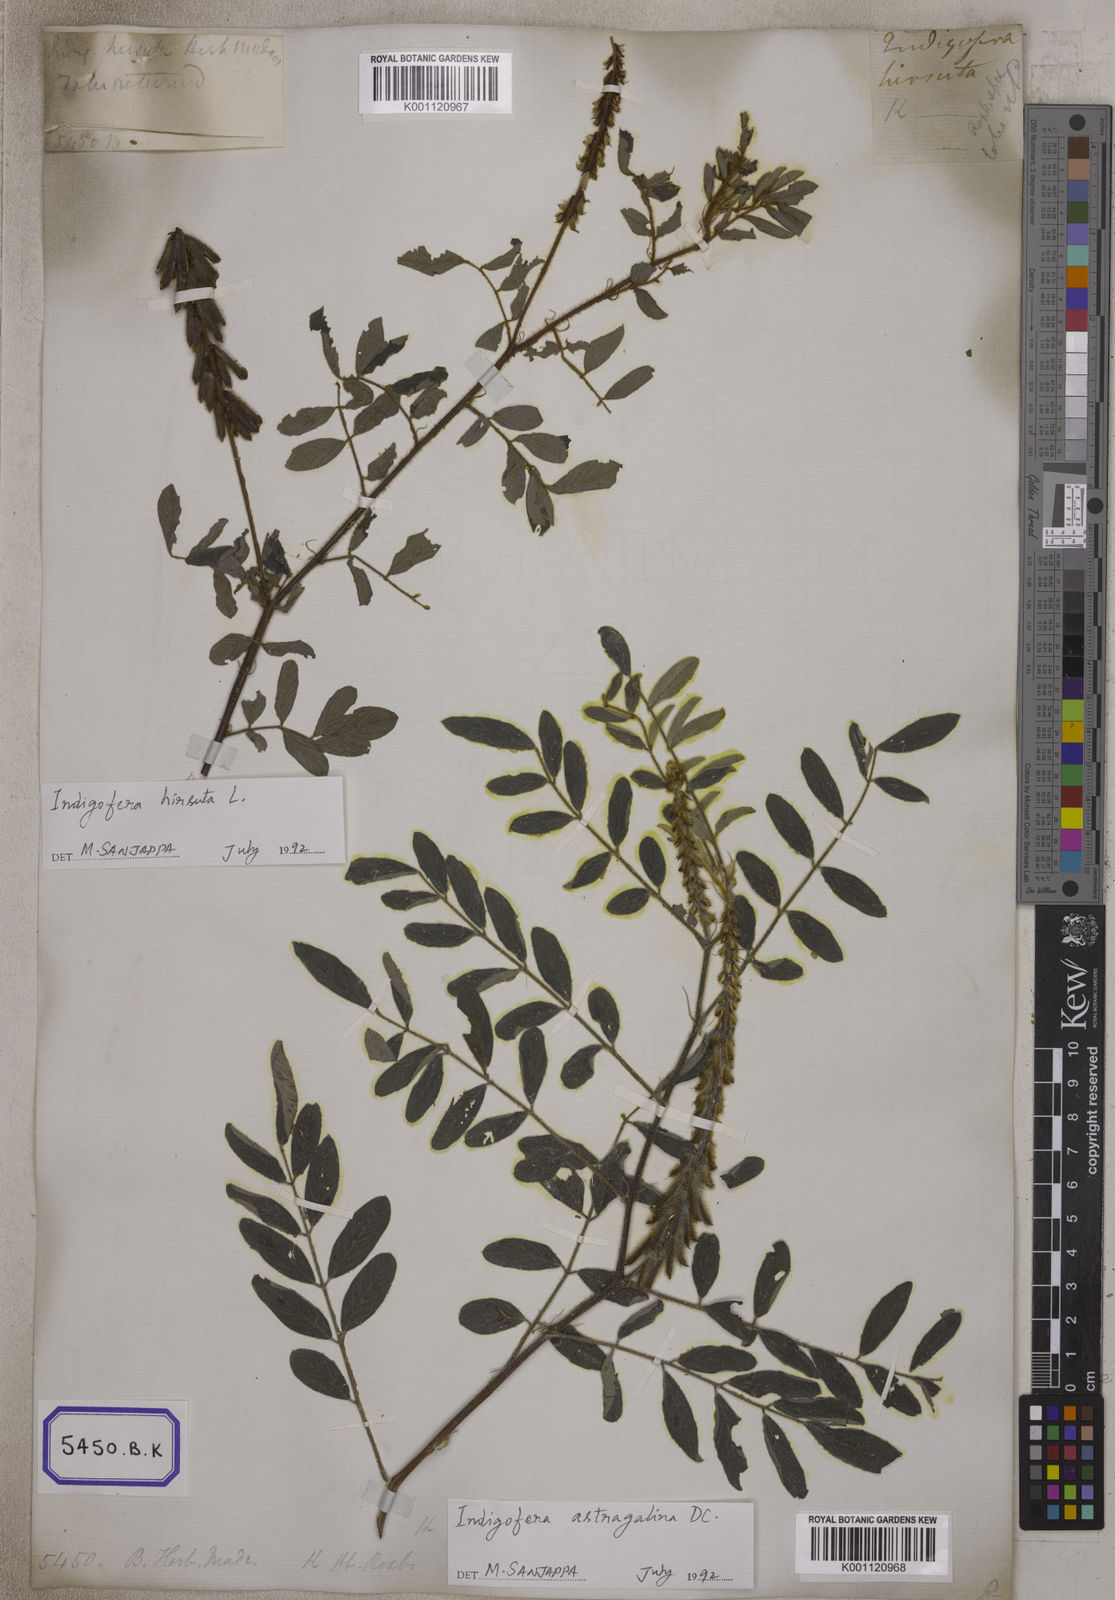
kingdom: Plantae
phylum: Tracheophyta
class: Magnoliopsida
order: Fabales
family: Fabaceae
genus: Indigofera
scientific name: Indigofera hirsuta
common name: Hairy indigo
